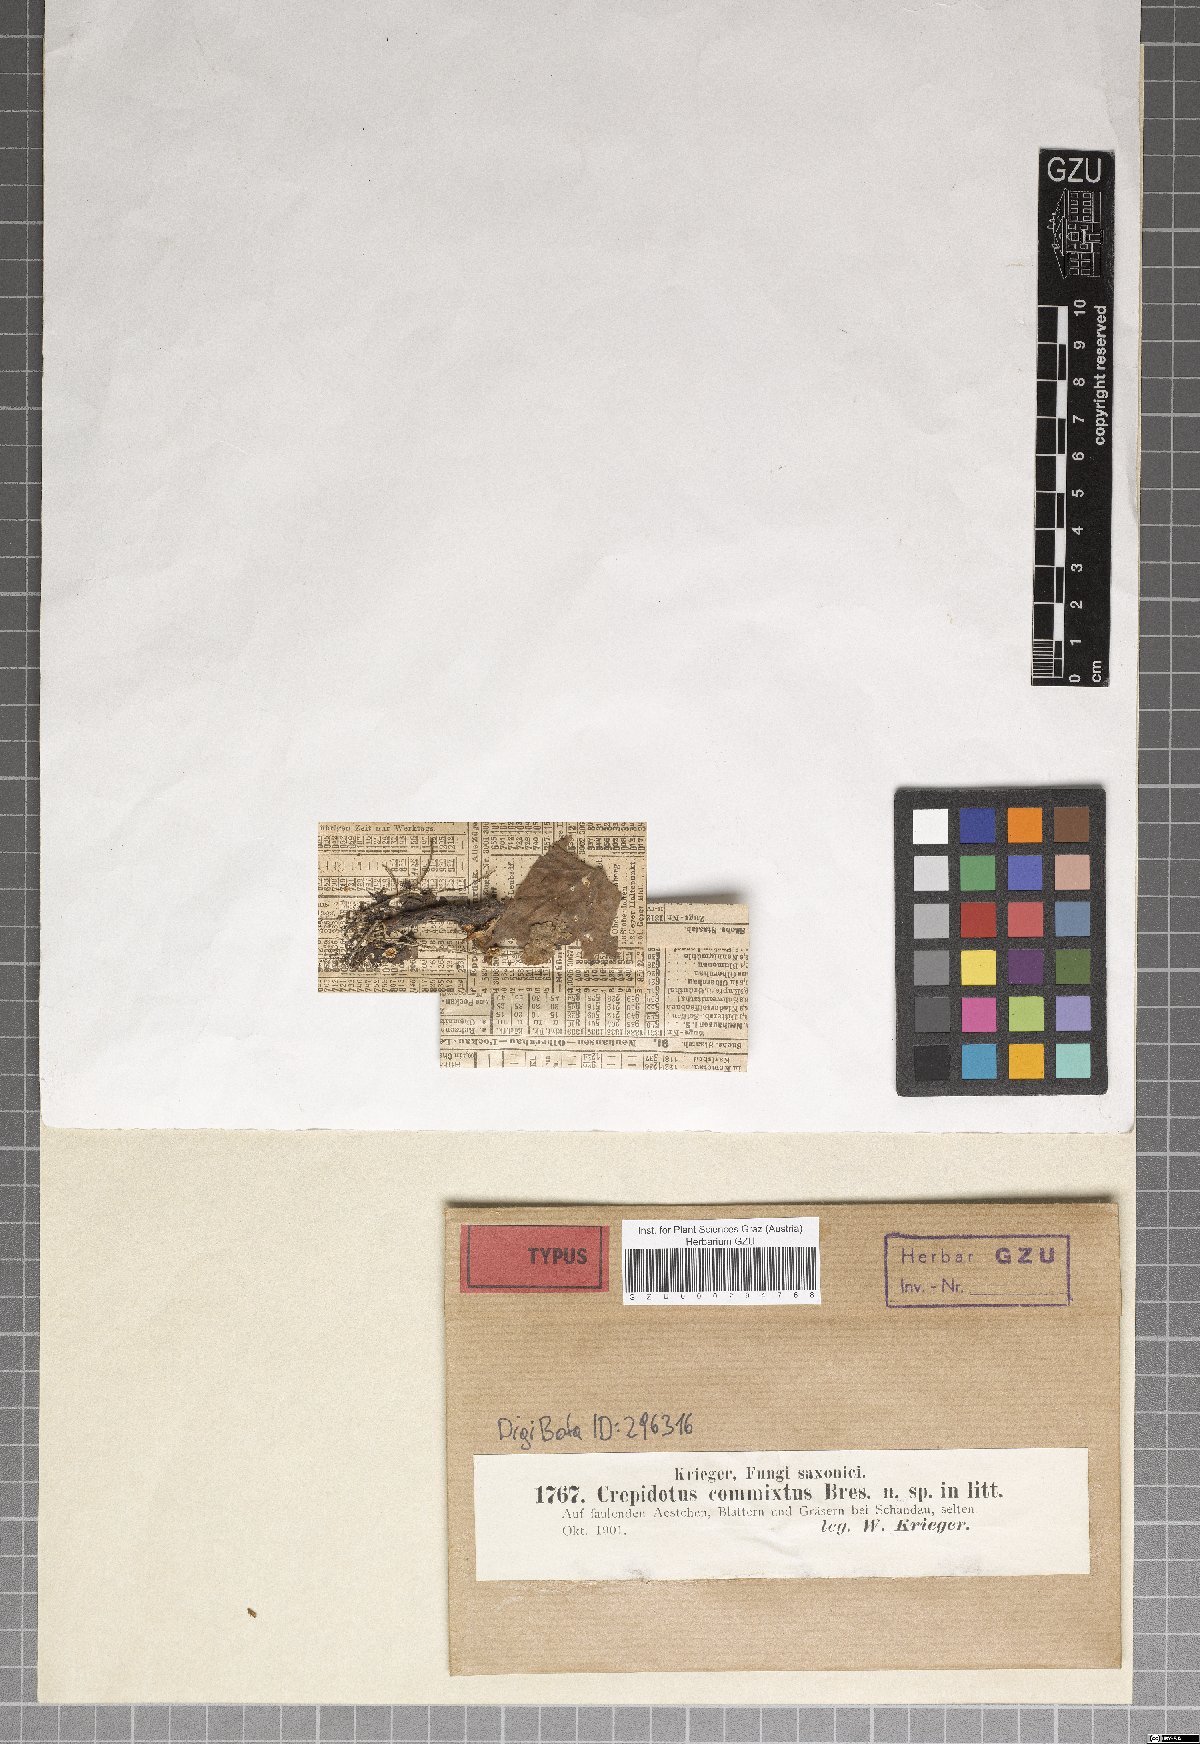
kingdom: Fungi
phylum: Basidiomycota
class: Agaricomycetes
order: Agaricales
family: Crepidotaceae
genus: Crepidotus
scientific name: Crepidotus epibryus
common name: Grass oysterling
